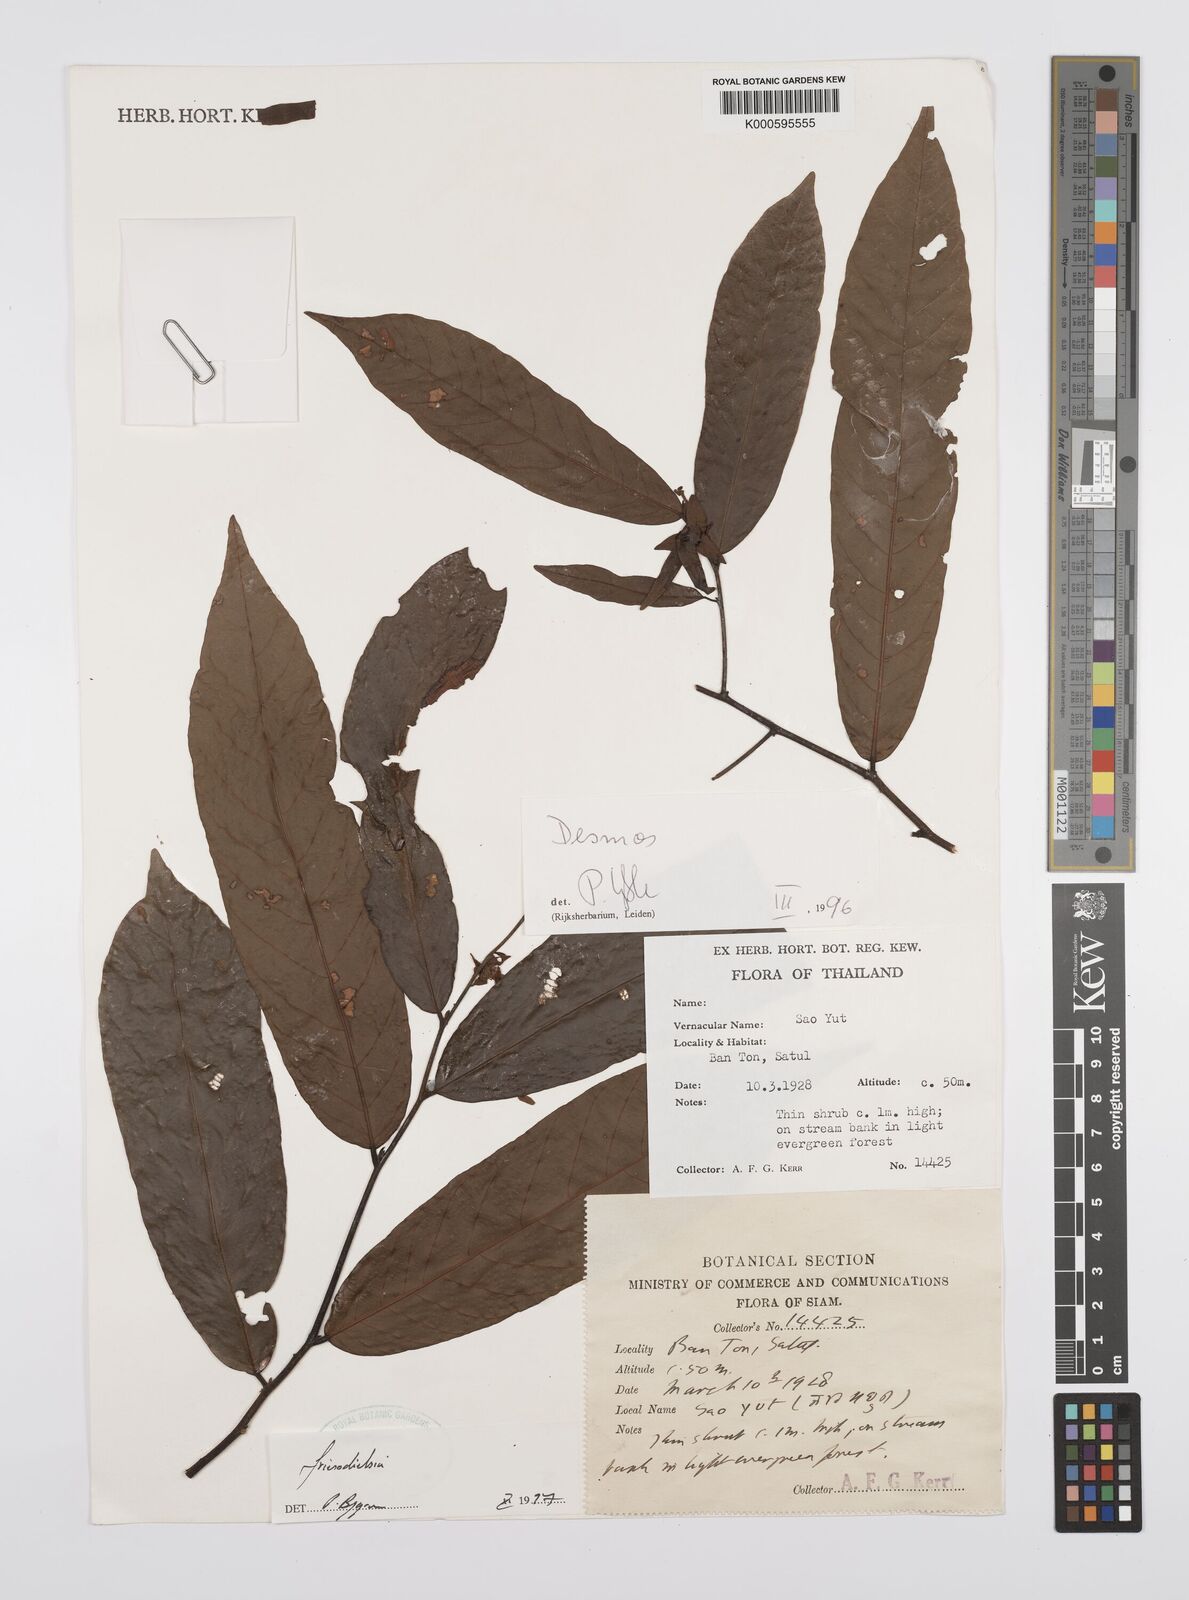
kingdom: Plantae
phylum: Tracheophyta
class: Magnoliopsida
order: Magnoliales
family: Annonaceae
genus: Friesodielsia
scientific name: Friesodielsia
